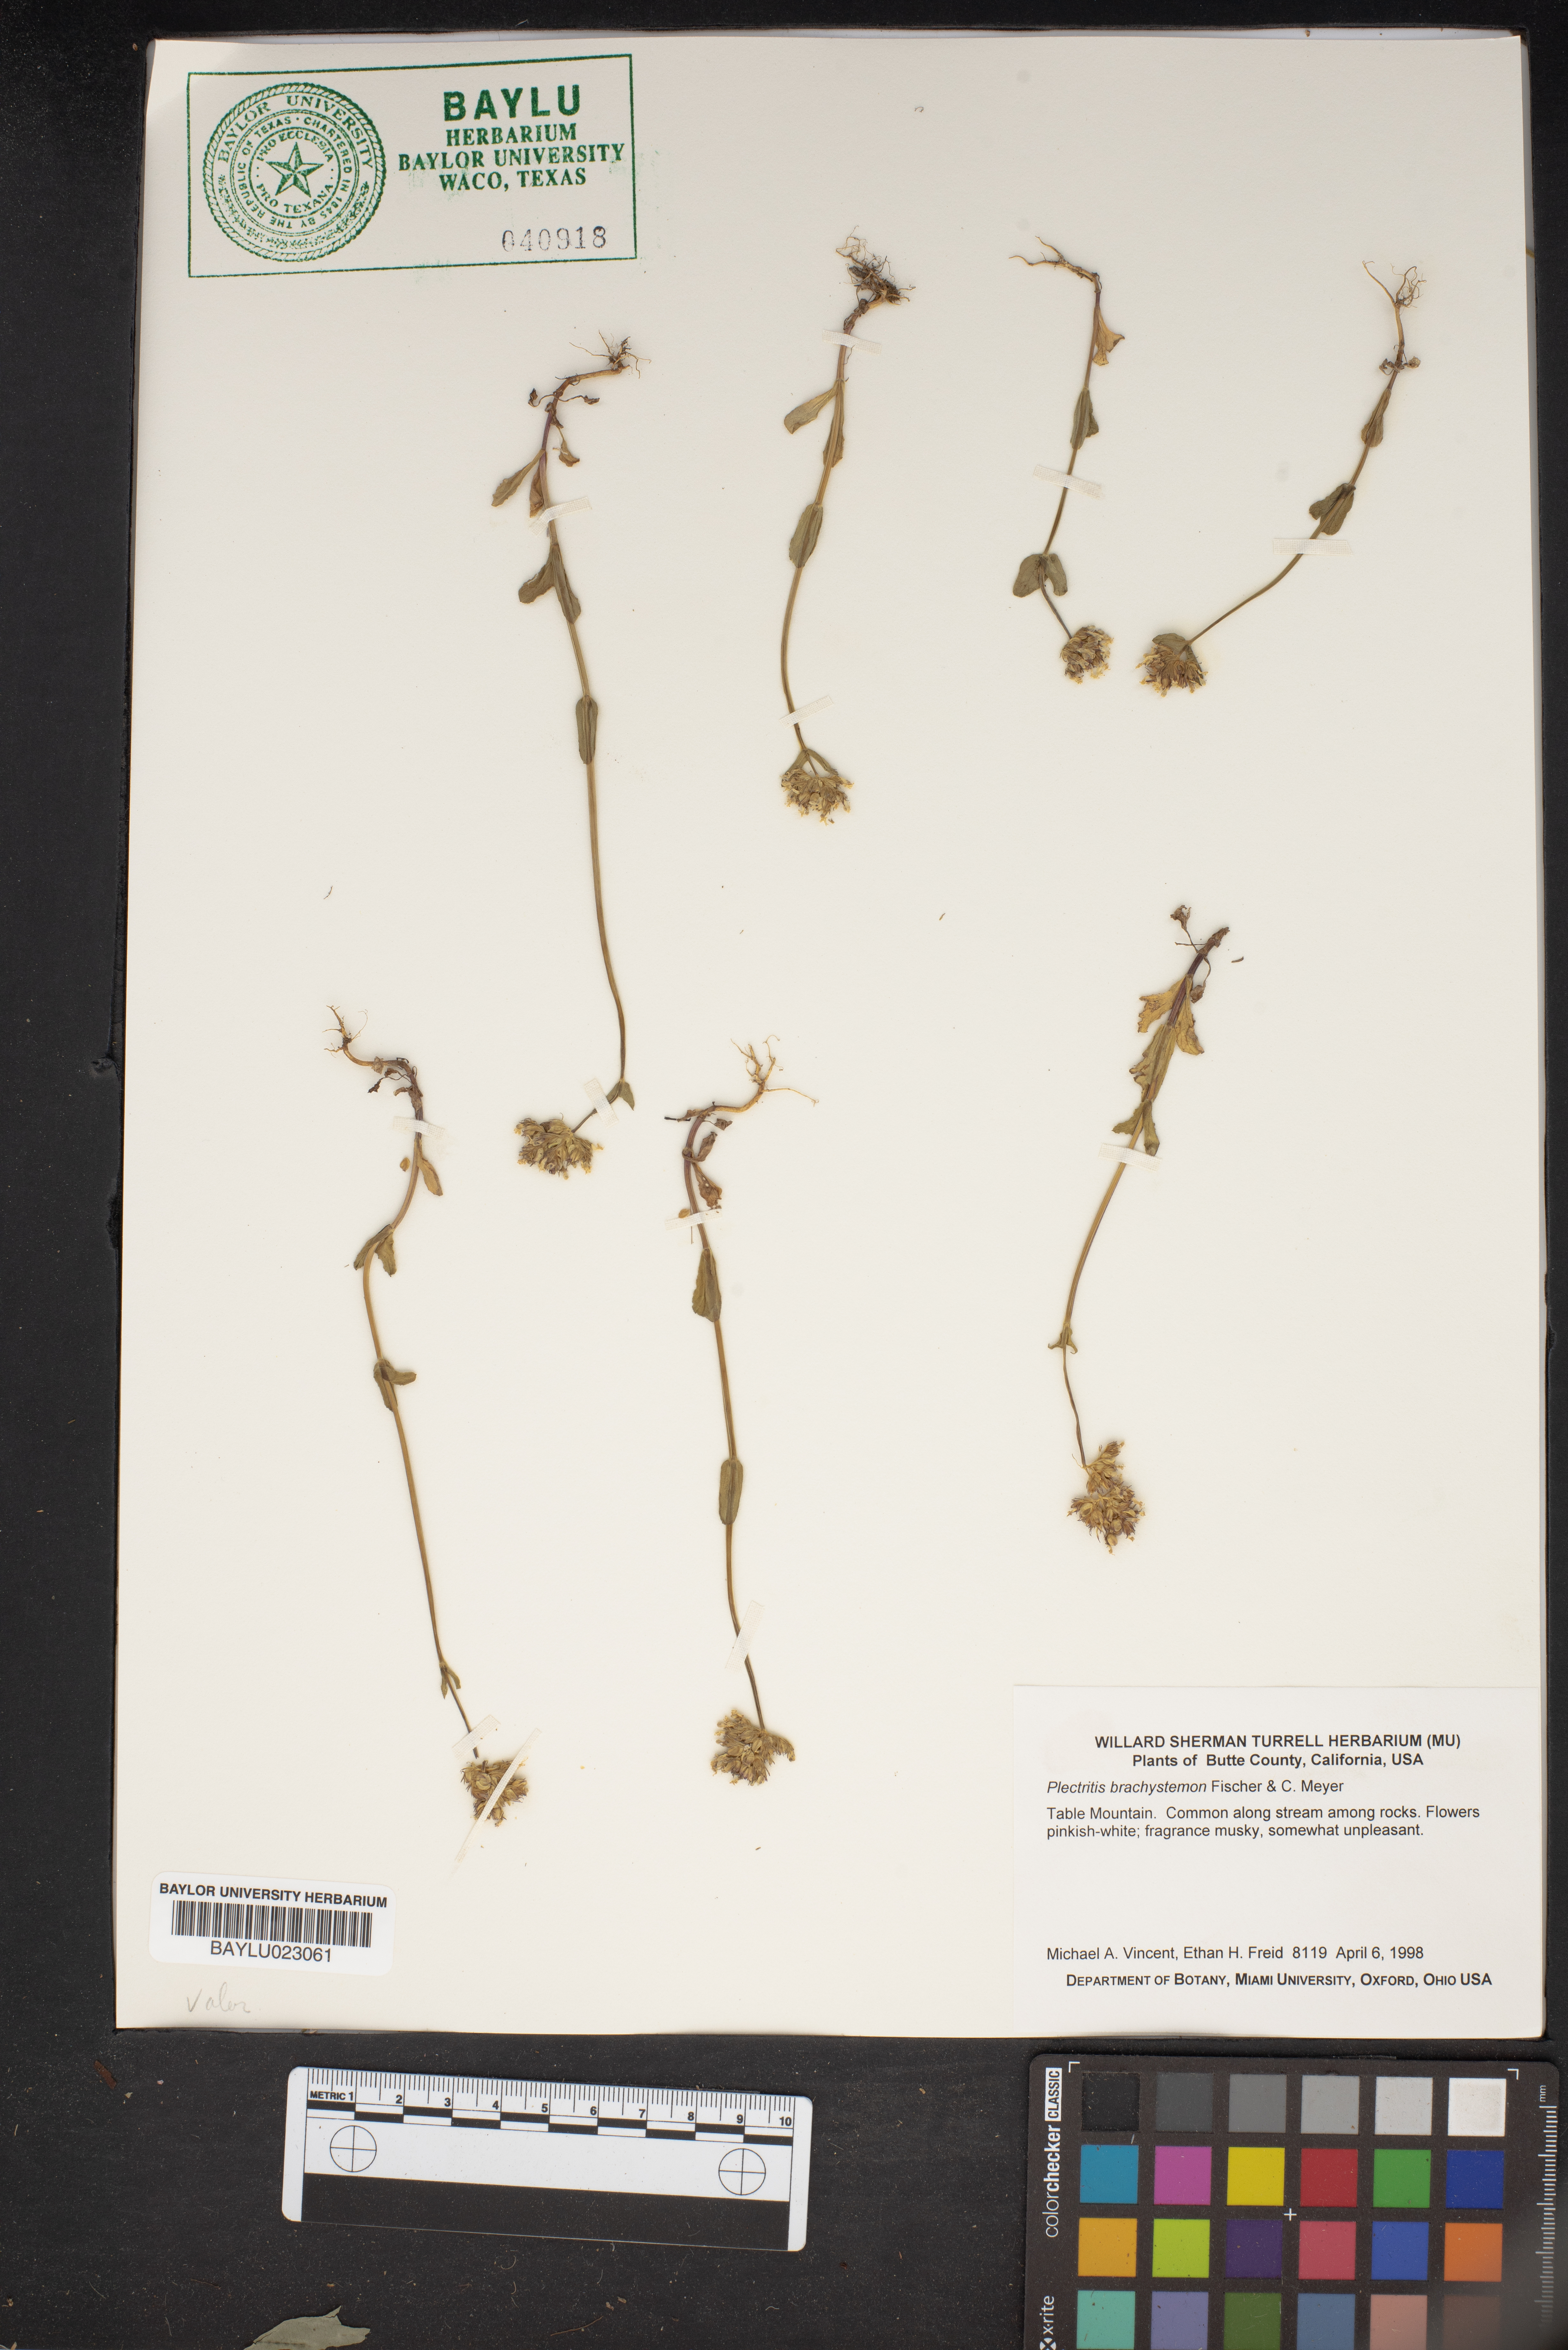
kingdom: Plantae
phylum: Tracheophyta
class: Magnoliopsida
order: Dipsacales
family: Caprifoliaceae
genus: Plectritis
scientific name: Plectritis brachystemon
